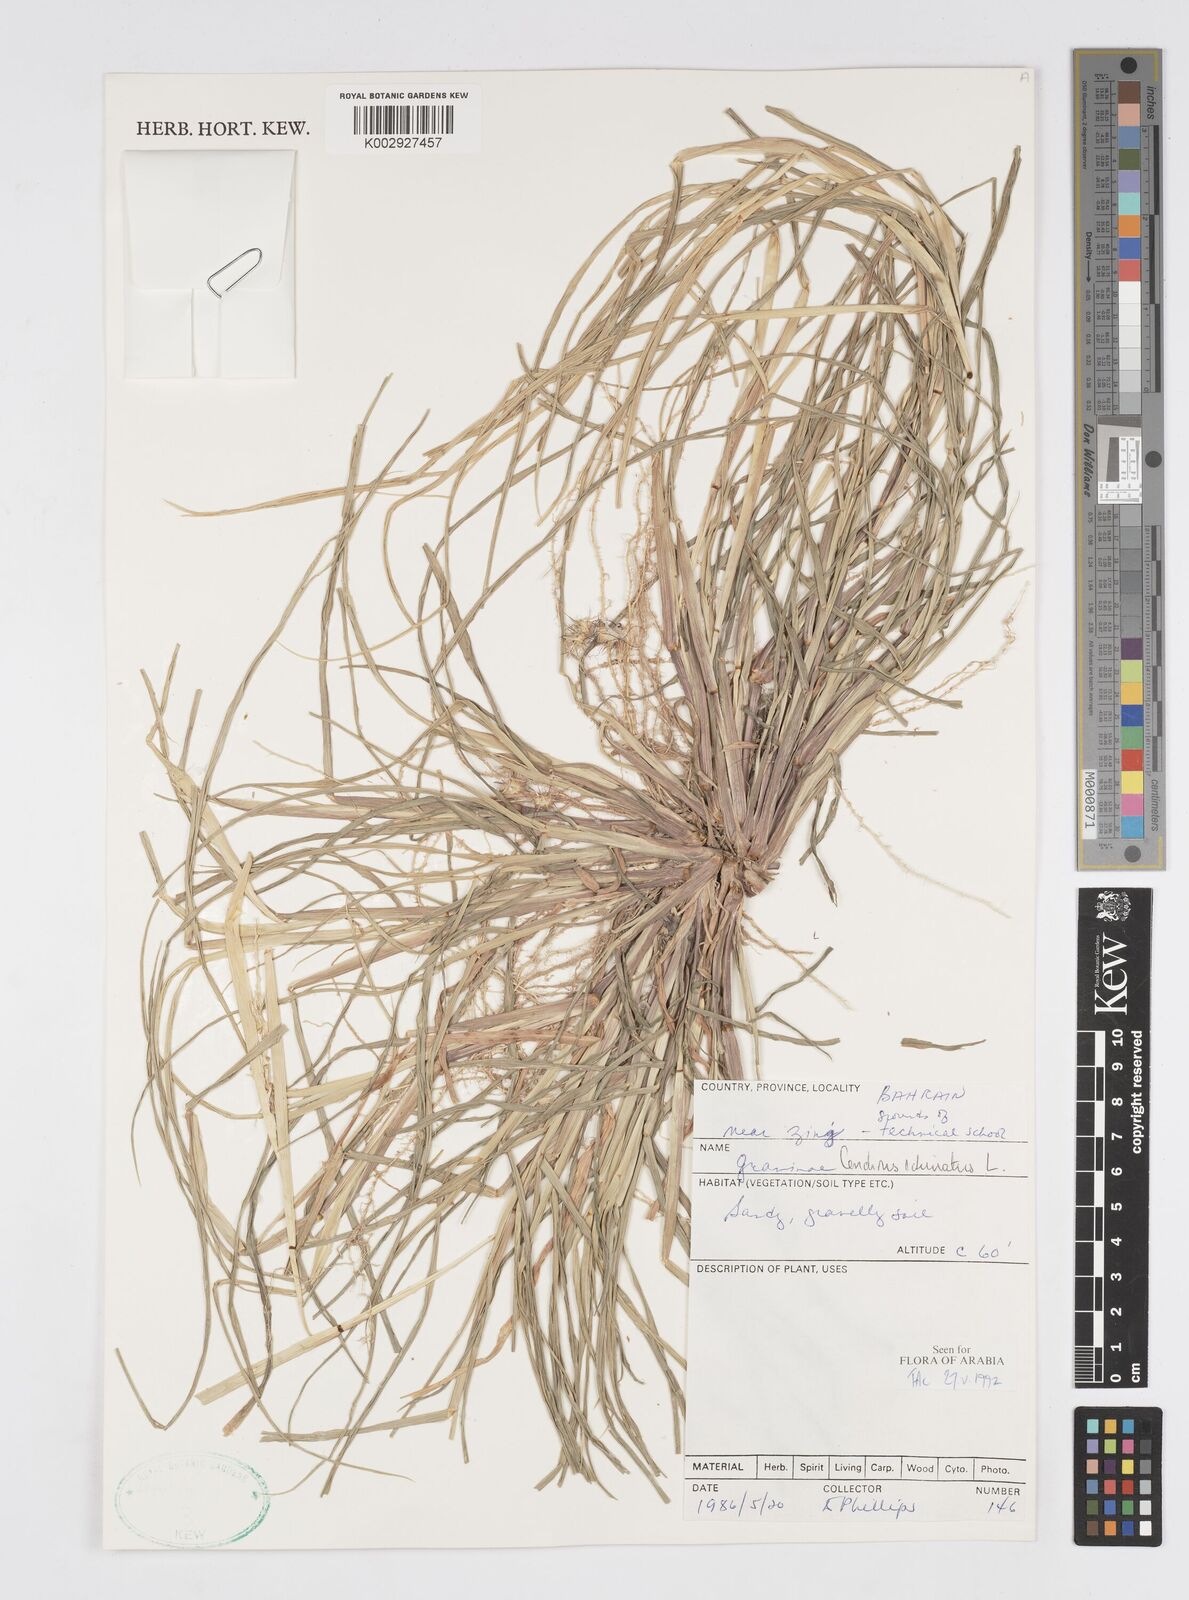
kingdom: Plantae
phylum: Tracheophyta
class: Liliopsida
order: Poales
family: Poaceae
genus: Cenchrus
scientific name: Cenchrus echinatus
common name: Southern sandbur
